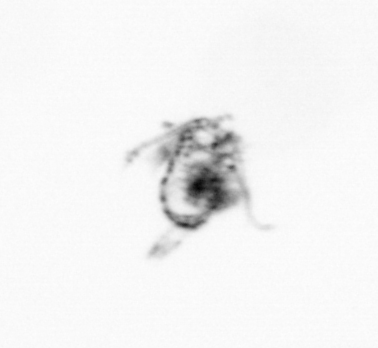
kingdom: Animalia
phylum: Arthropoda
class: Copepoda
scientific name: Copepoda
